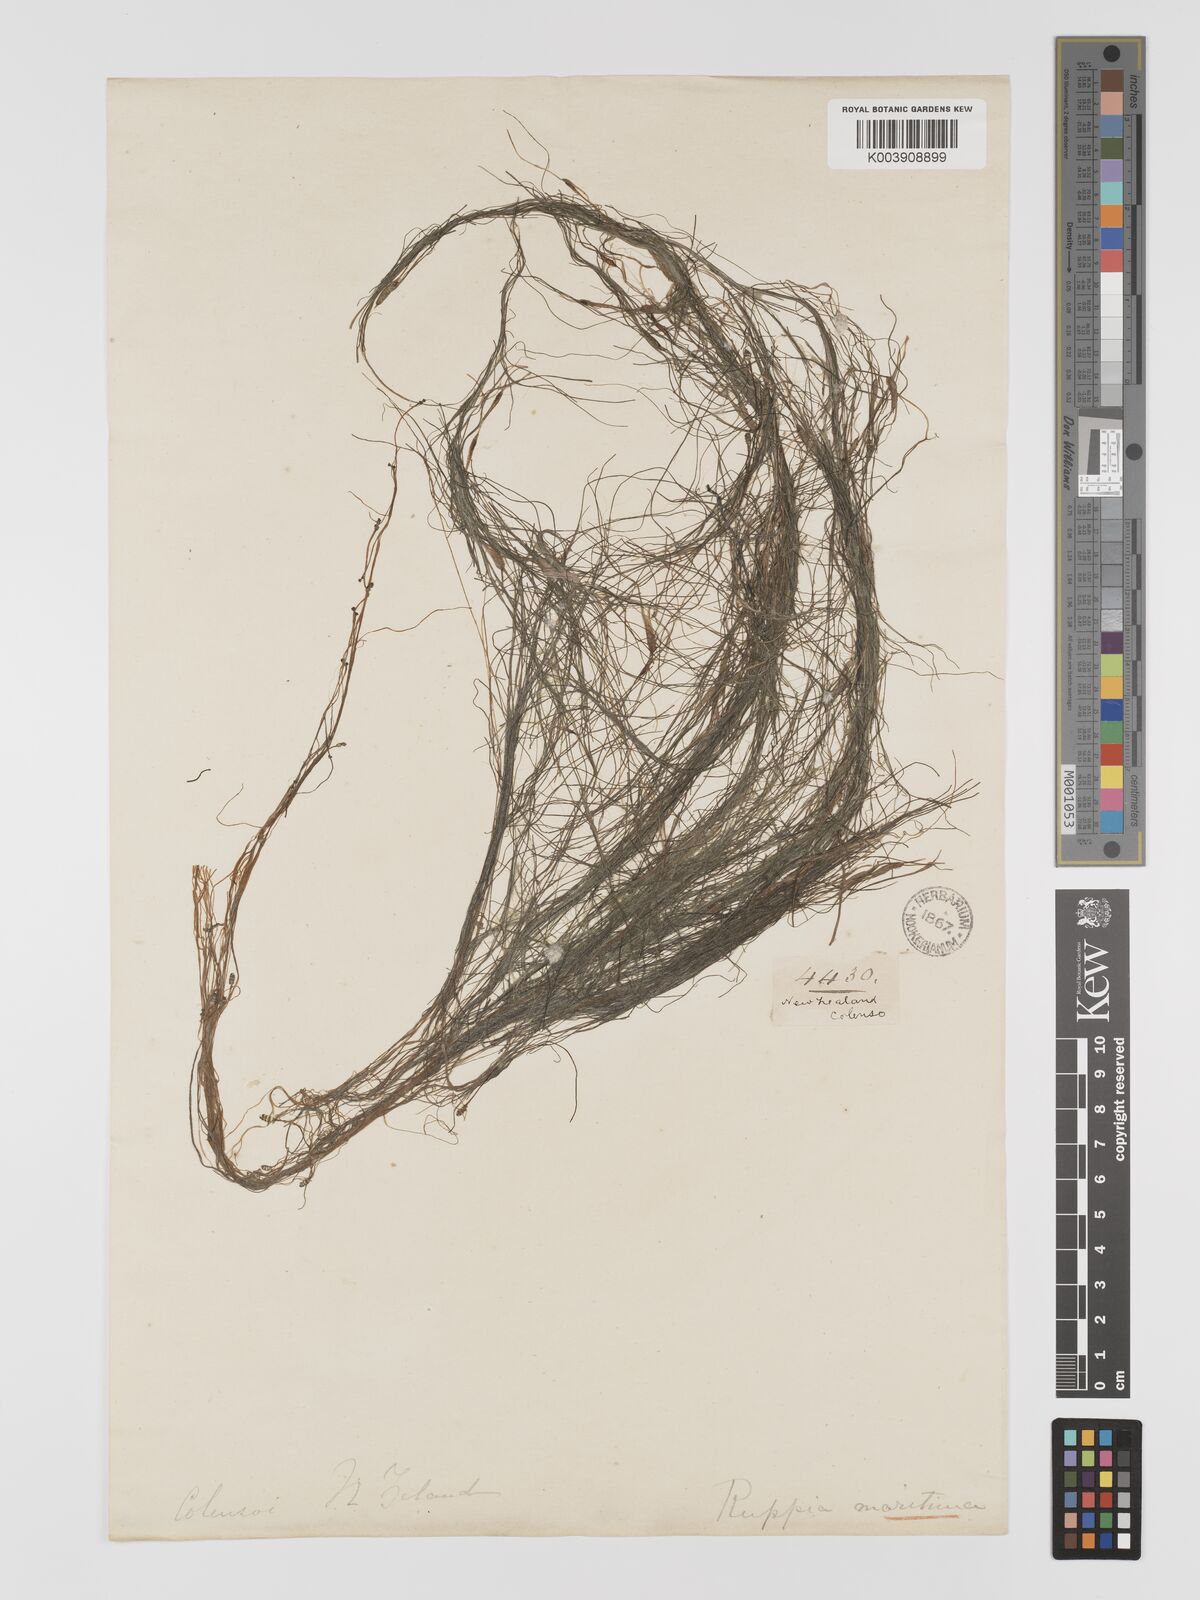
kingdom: Plantae
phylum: Tracheophyta
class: Liliopsida
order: Alismatales
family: Ruppiaceae
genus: Ruppia
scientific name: Ruppia maritima
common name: Beaked tasselweed
